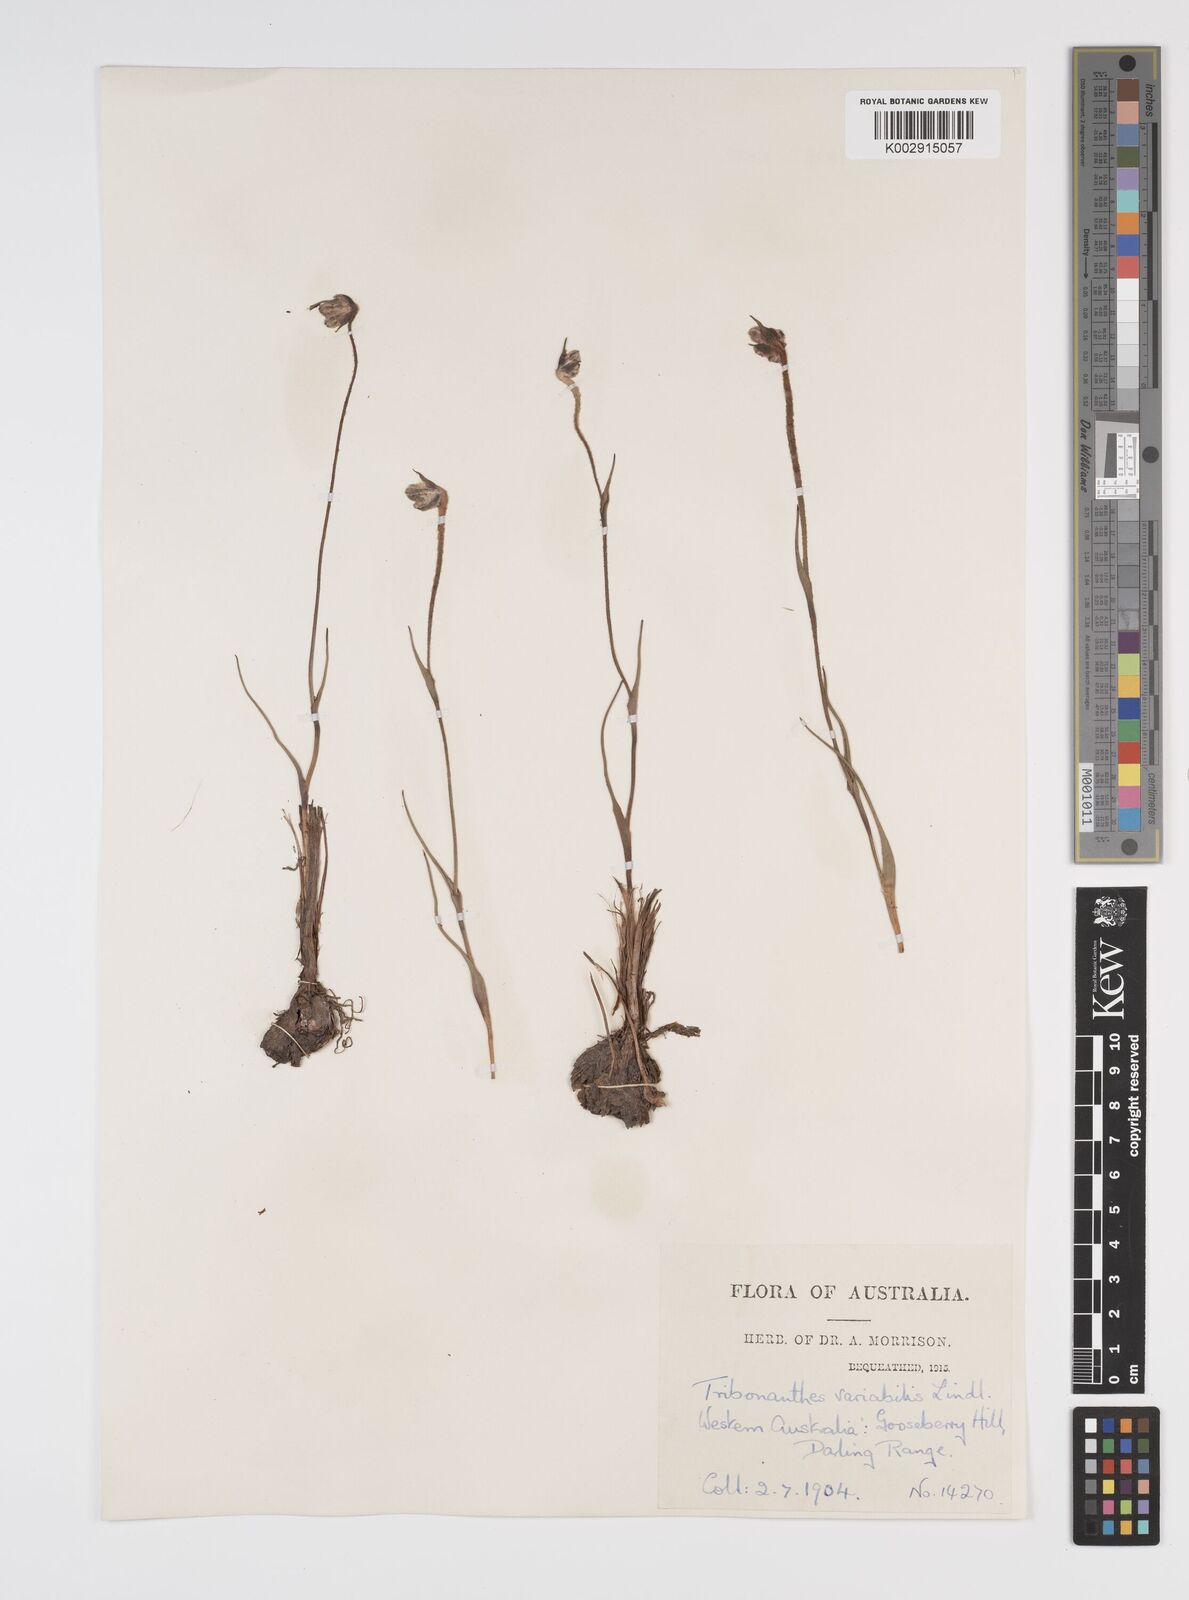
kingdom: Plantae
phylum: Tracheophyta
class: Liliopsida
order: Commelinales
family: Haemodoraceae
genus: Tribonanthes
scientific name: Tribonanthes australis
